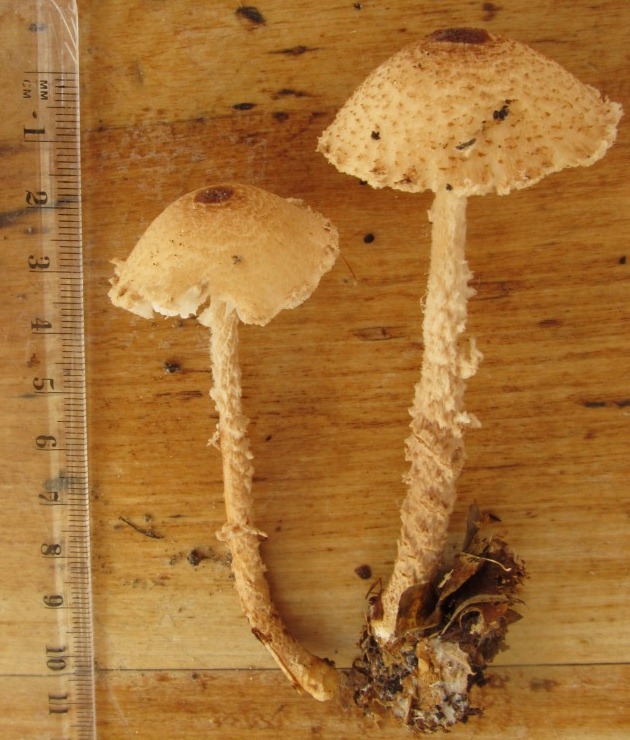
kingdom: Fungi
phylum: Basidiomycota
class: Agaricomycetes
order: Agaricales
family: Agaricaceae
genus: Lepiota
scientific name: Lepiota clypeolaria
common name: flosset parasolhat
